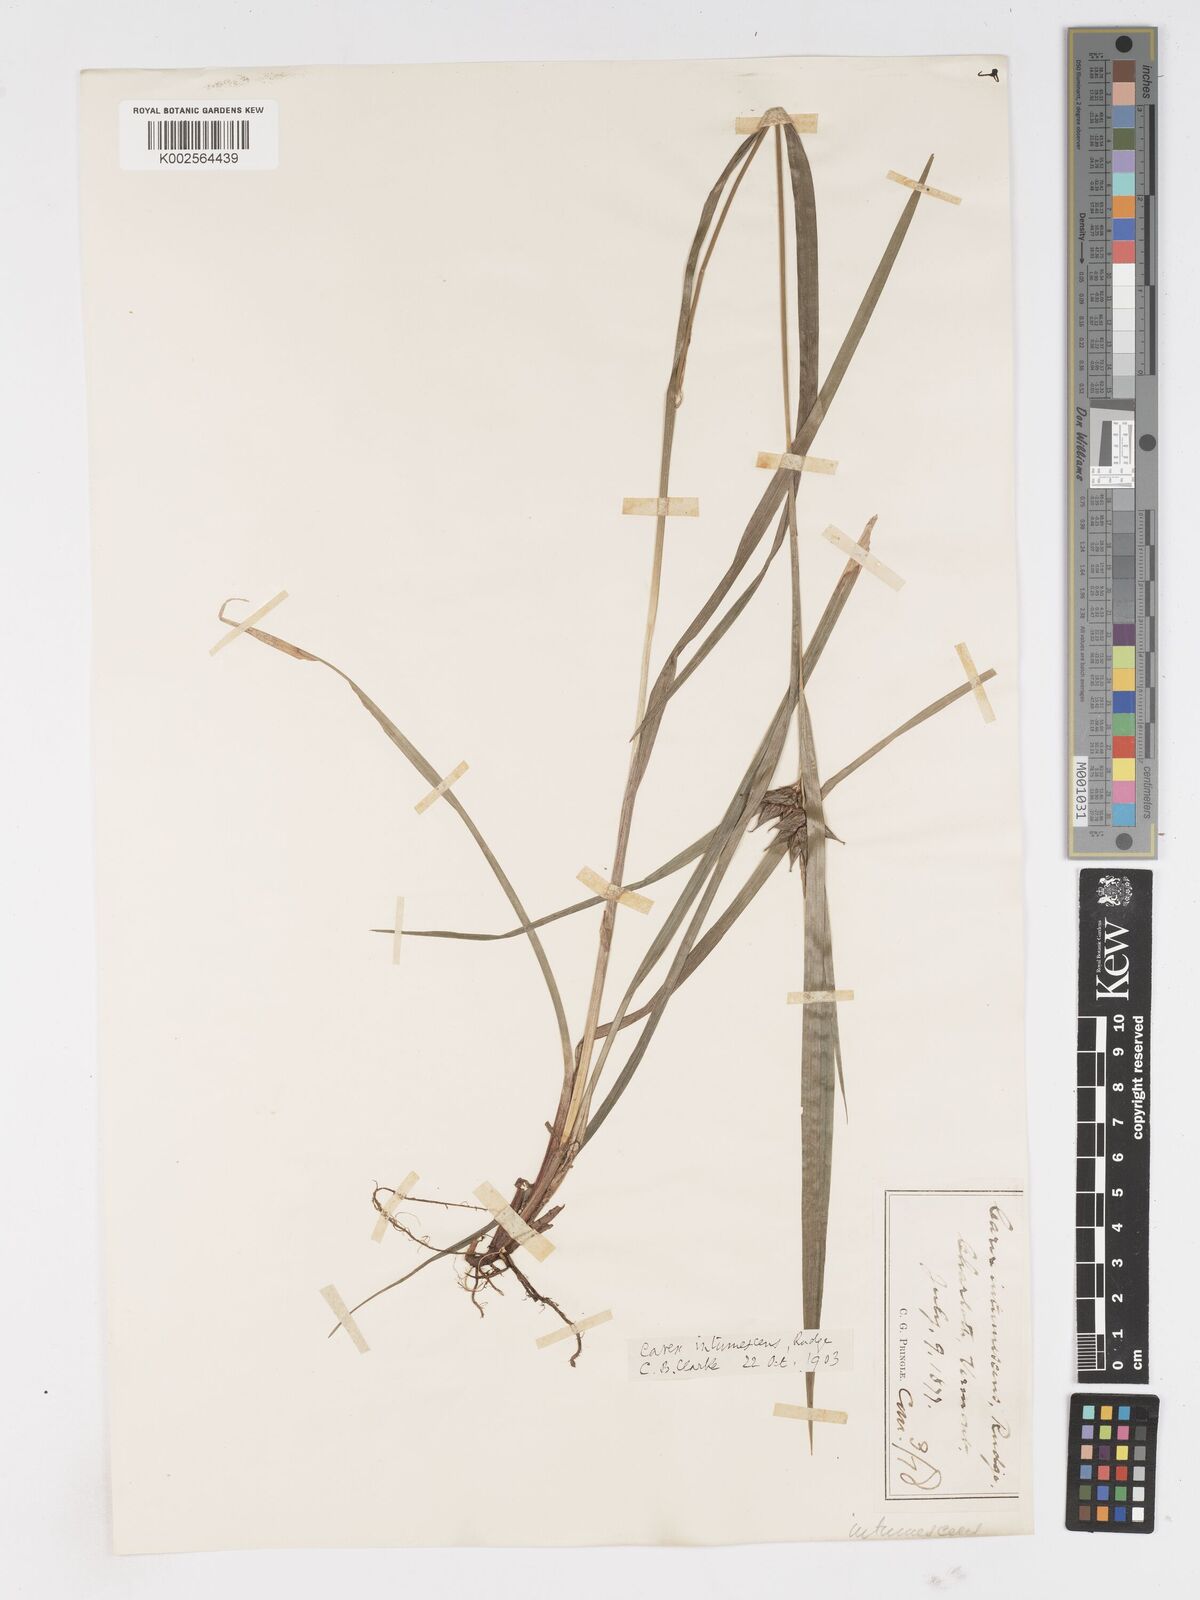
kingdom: Plantae
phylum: Tracheophyta
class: Liliopsida
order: Poales
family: Cyperaceae
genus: Carex
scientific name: Carex intumescens
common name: Greater bladder sedge
